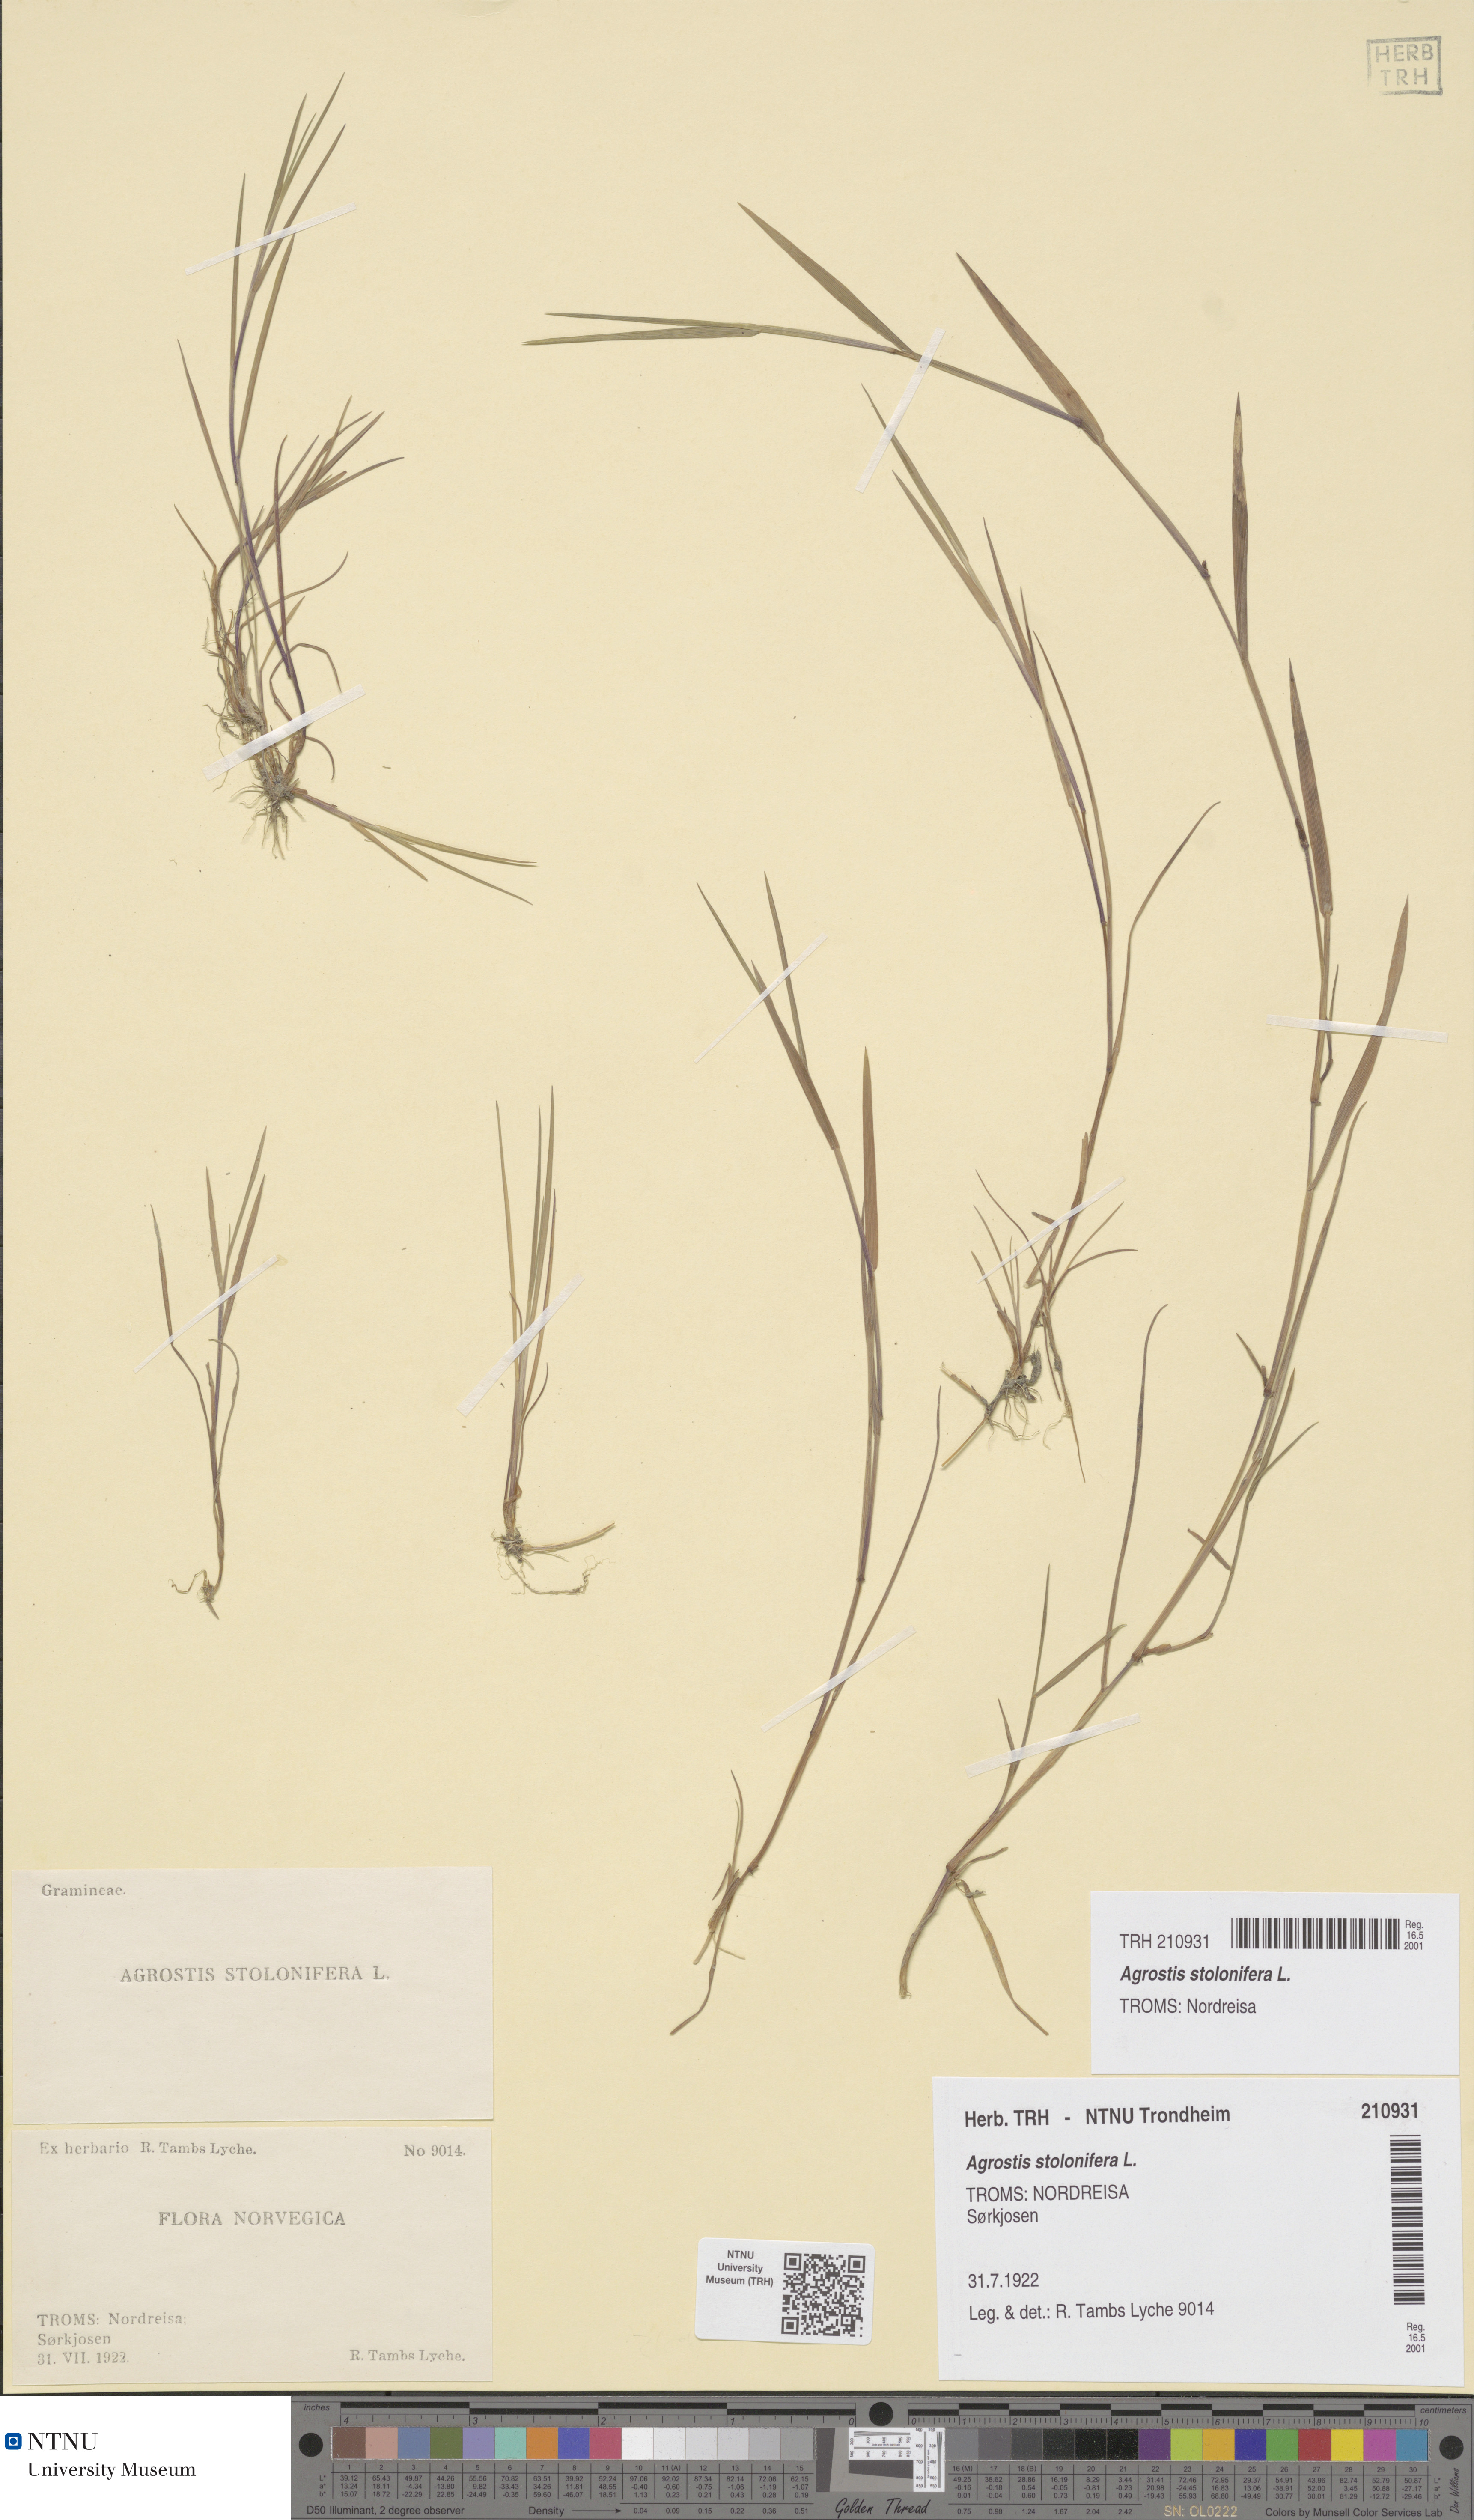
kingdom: Plantae
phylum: Tracheophyta
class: Liliopsida
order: Poales
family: Poaceae
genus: Agrostis
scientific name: Agrostis stolonifera
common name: Creeping bentgrass
